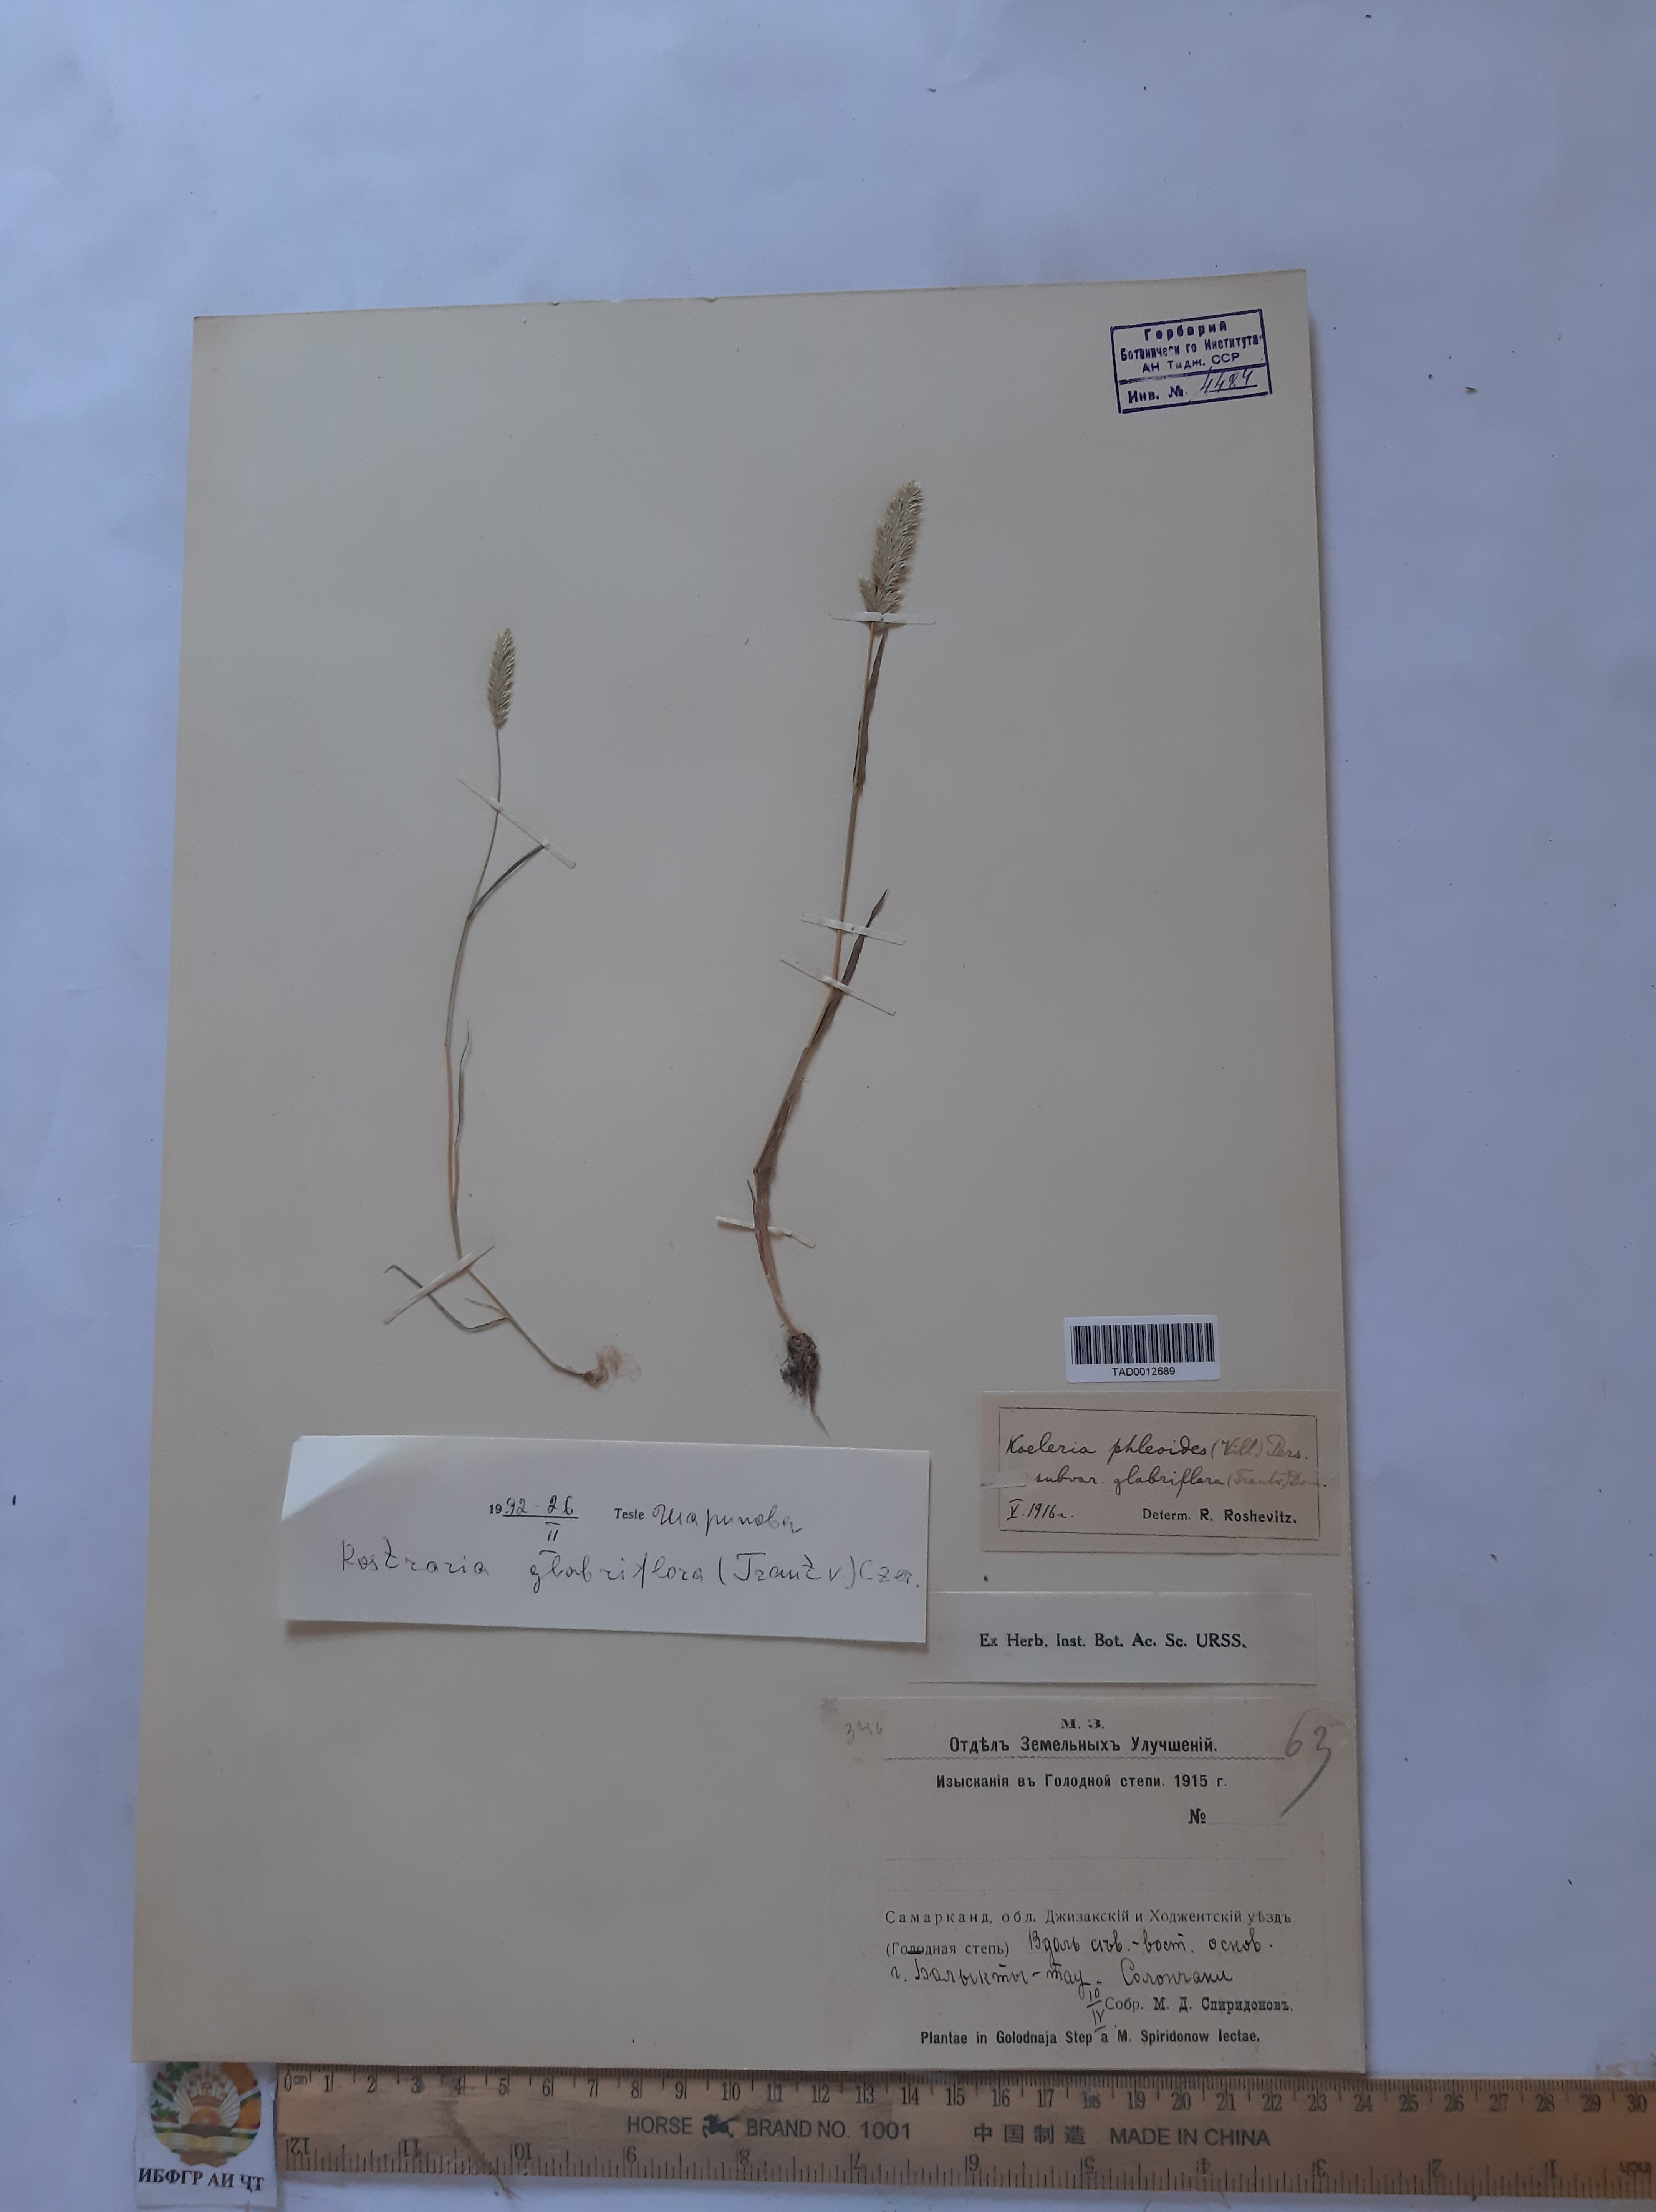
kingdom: Plantae
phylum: Tracheophyta
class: Liliopsida
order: Poales
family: Poaceae
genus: Rostraria
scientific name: Rostraria cristata
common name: Mediterranean hair-grass
